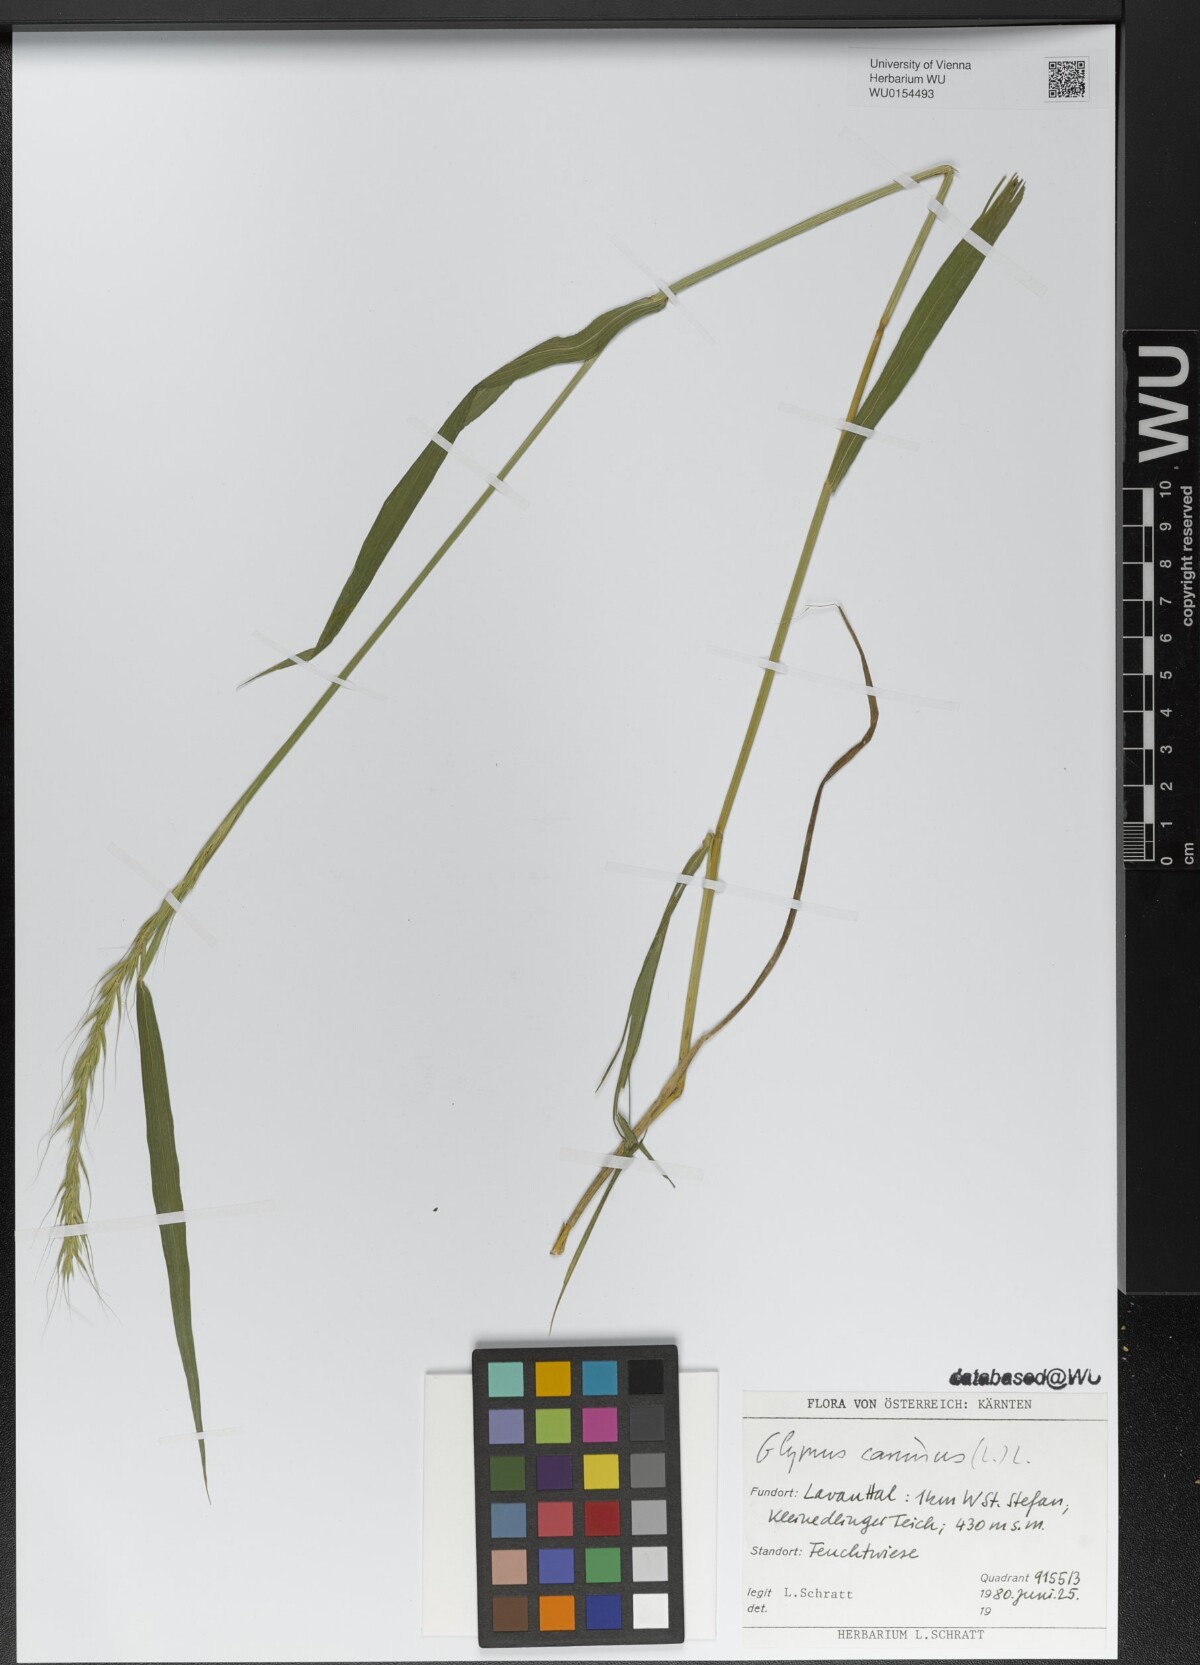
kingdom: Plantae
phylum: Tracheophyta
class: Liliopsida
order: Poales
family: Poaceae
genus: Elymus
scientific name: Elymus caninus
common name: Bearded couch
